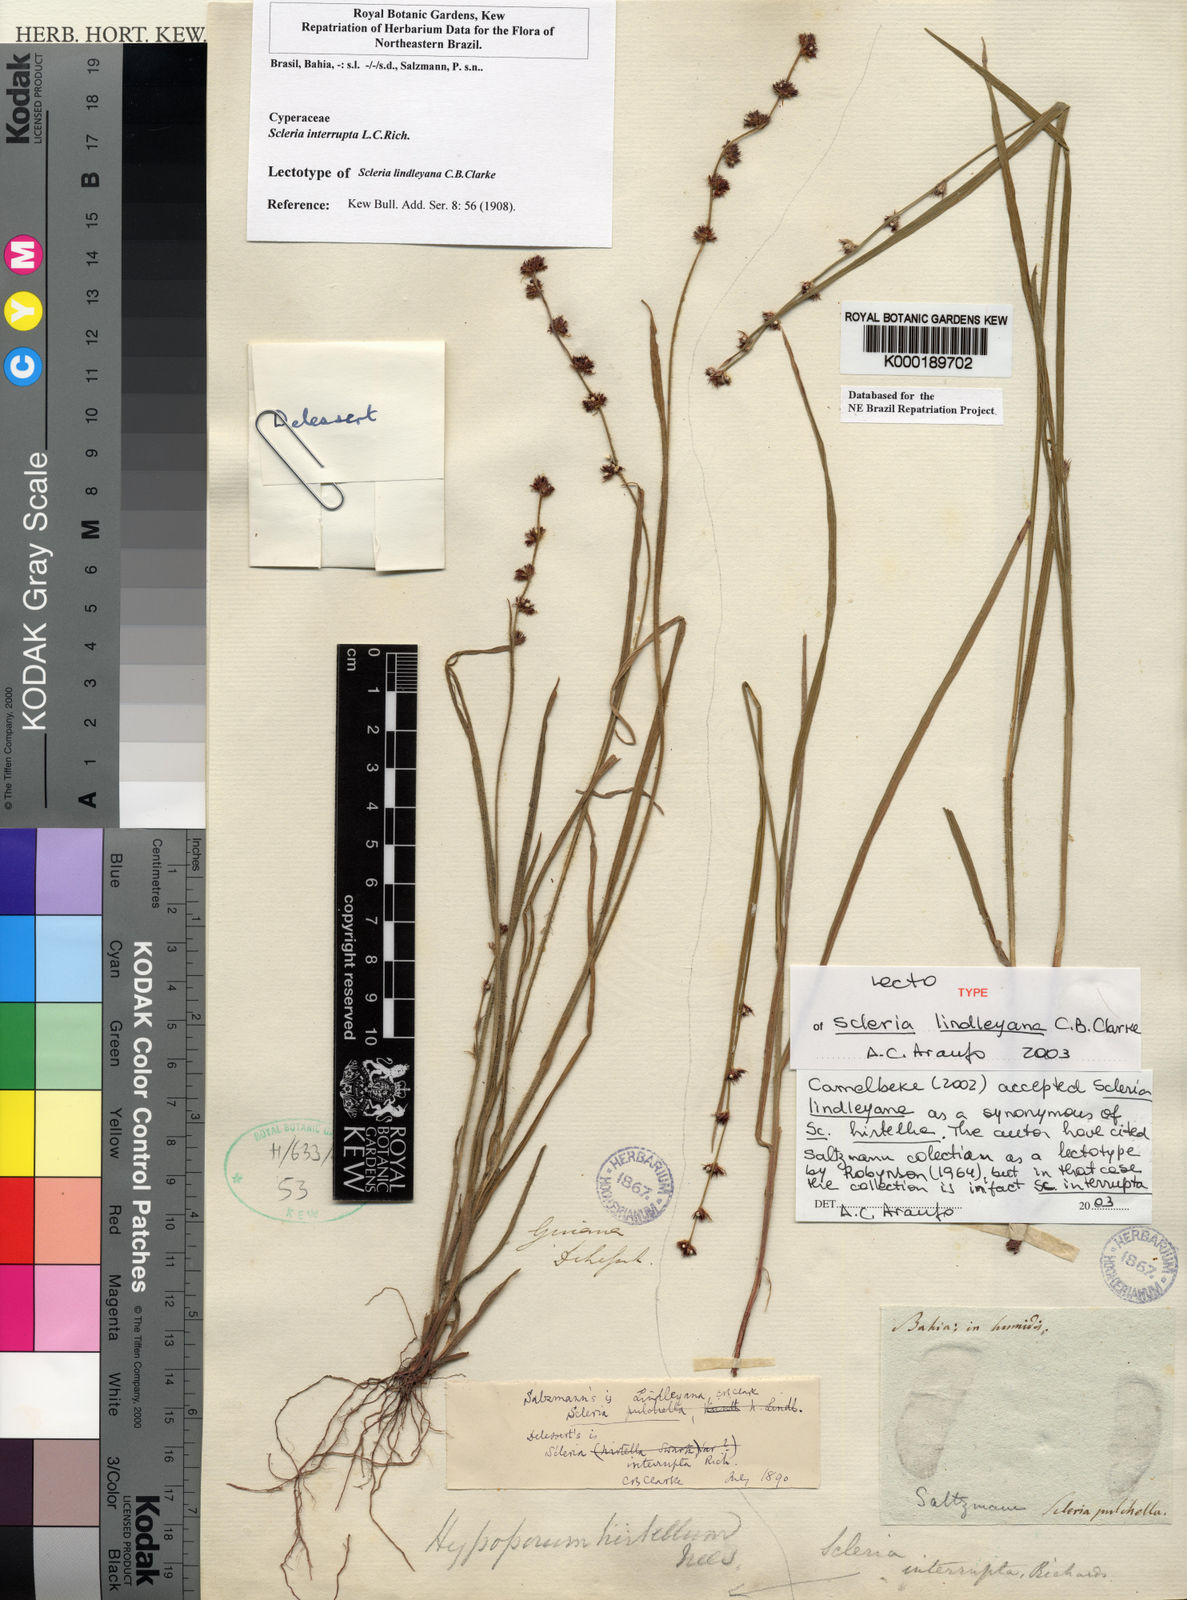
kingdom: Plantae
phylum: Tracheophyta
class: Liliopsida
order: Poales
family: Cyperaceae
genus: Scleria
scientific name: Scleria hirtella
